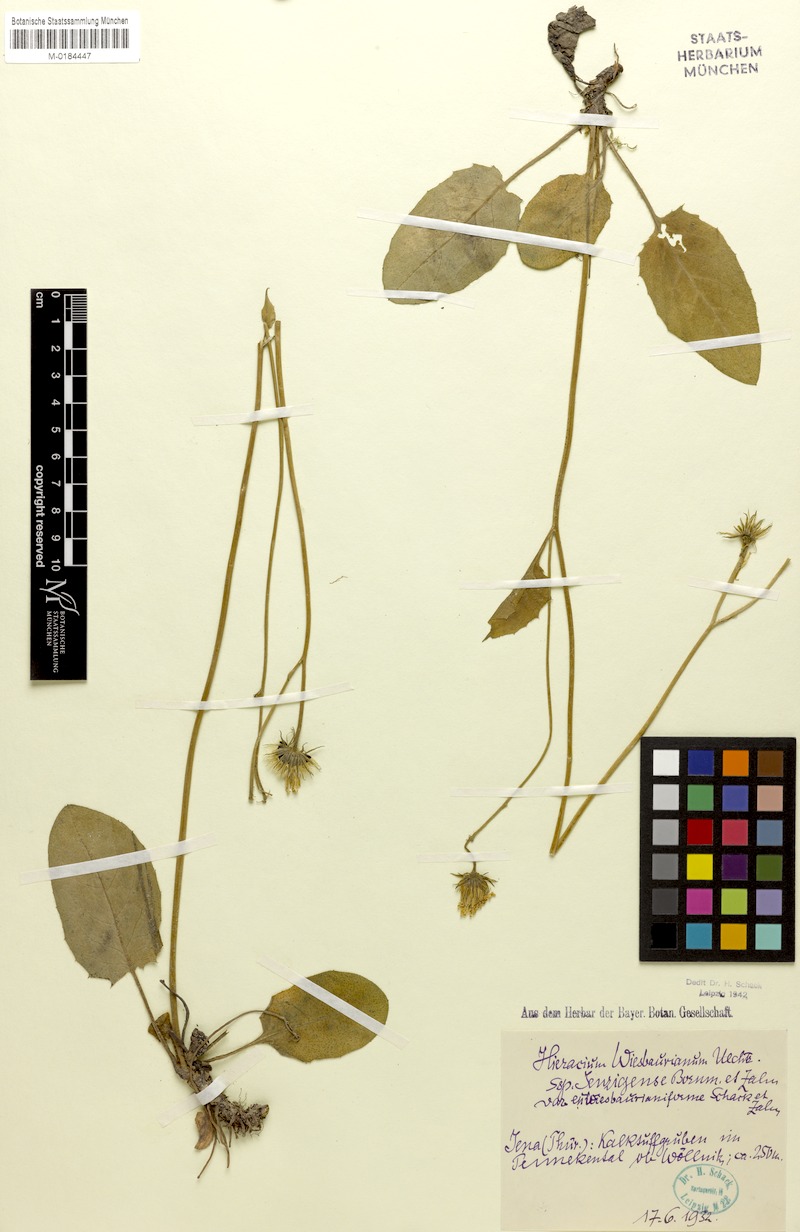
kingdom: Plantae
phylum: Tracheophyta
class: Magnoliopsida
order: Asterales
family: Asteraceae
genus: Hieracium
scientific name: Hieracium hypochoeroides
